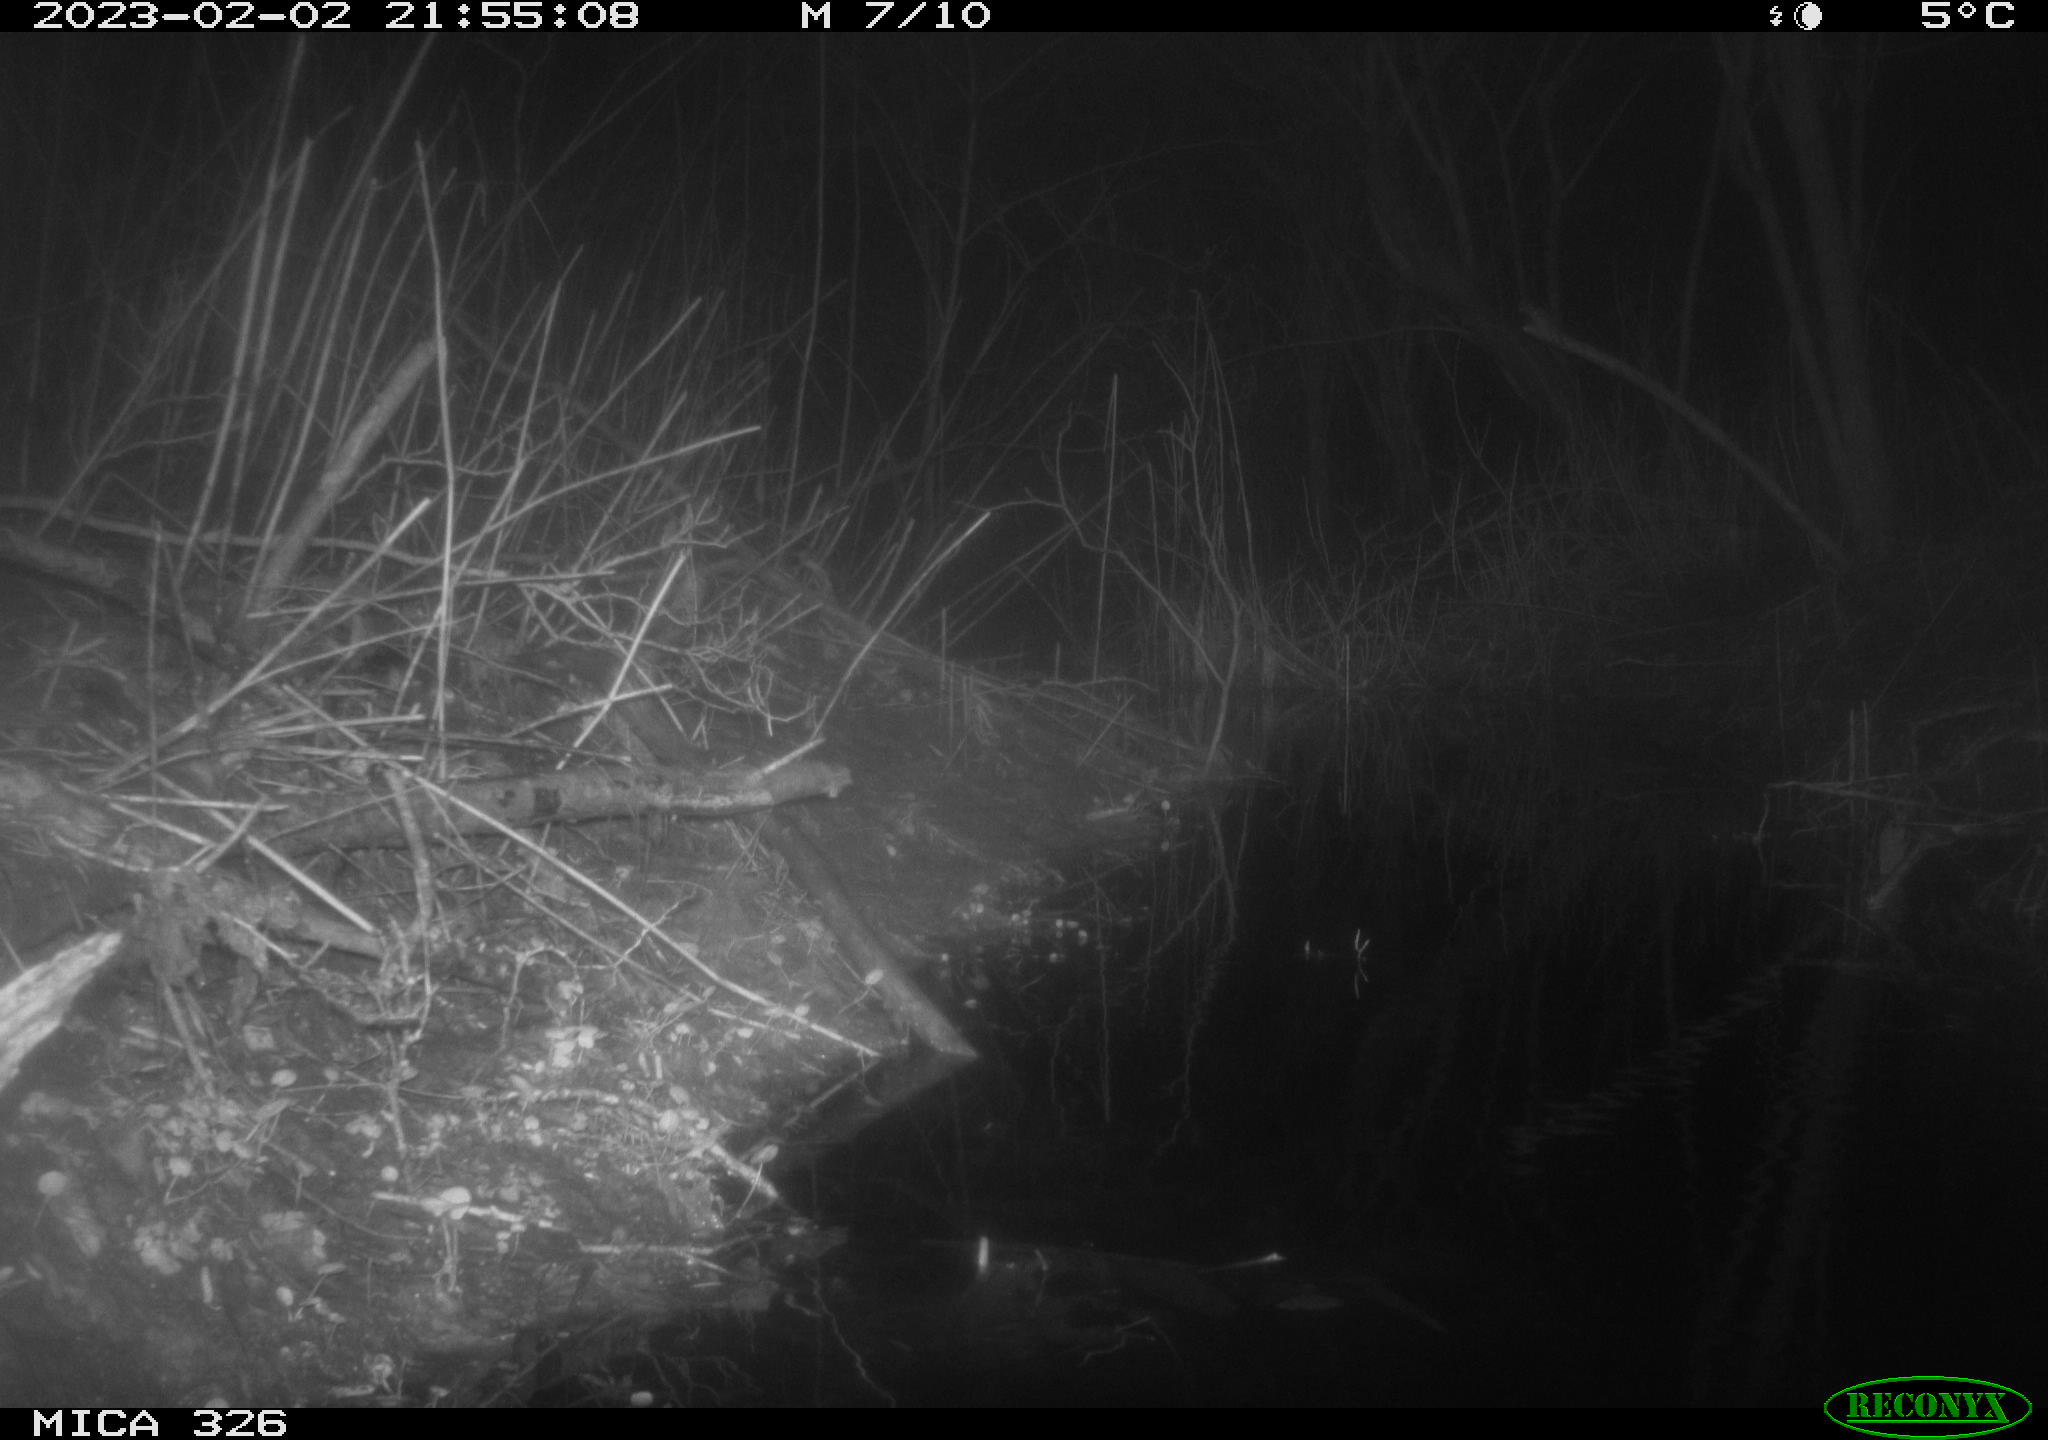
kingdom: Animalia
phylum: Chordata
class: Mammalia
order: Rodentia
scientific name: Rodentia
